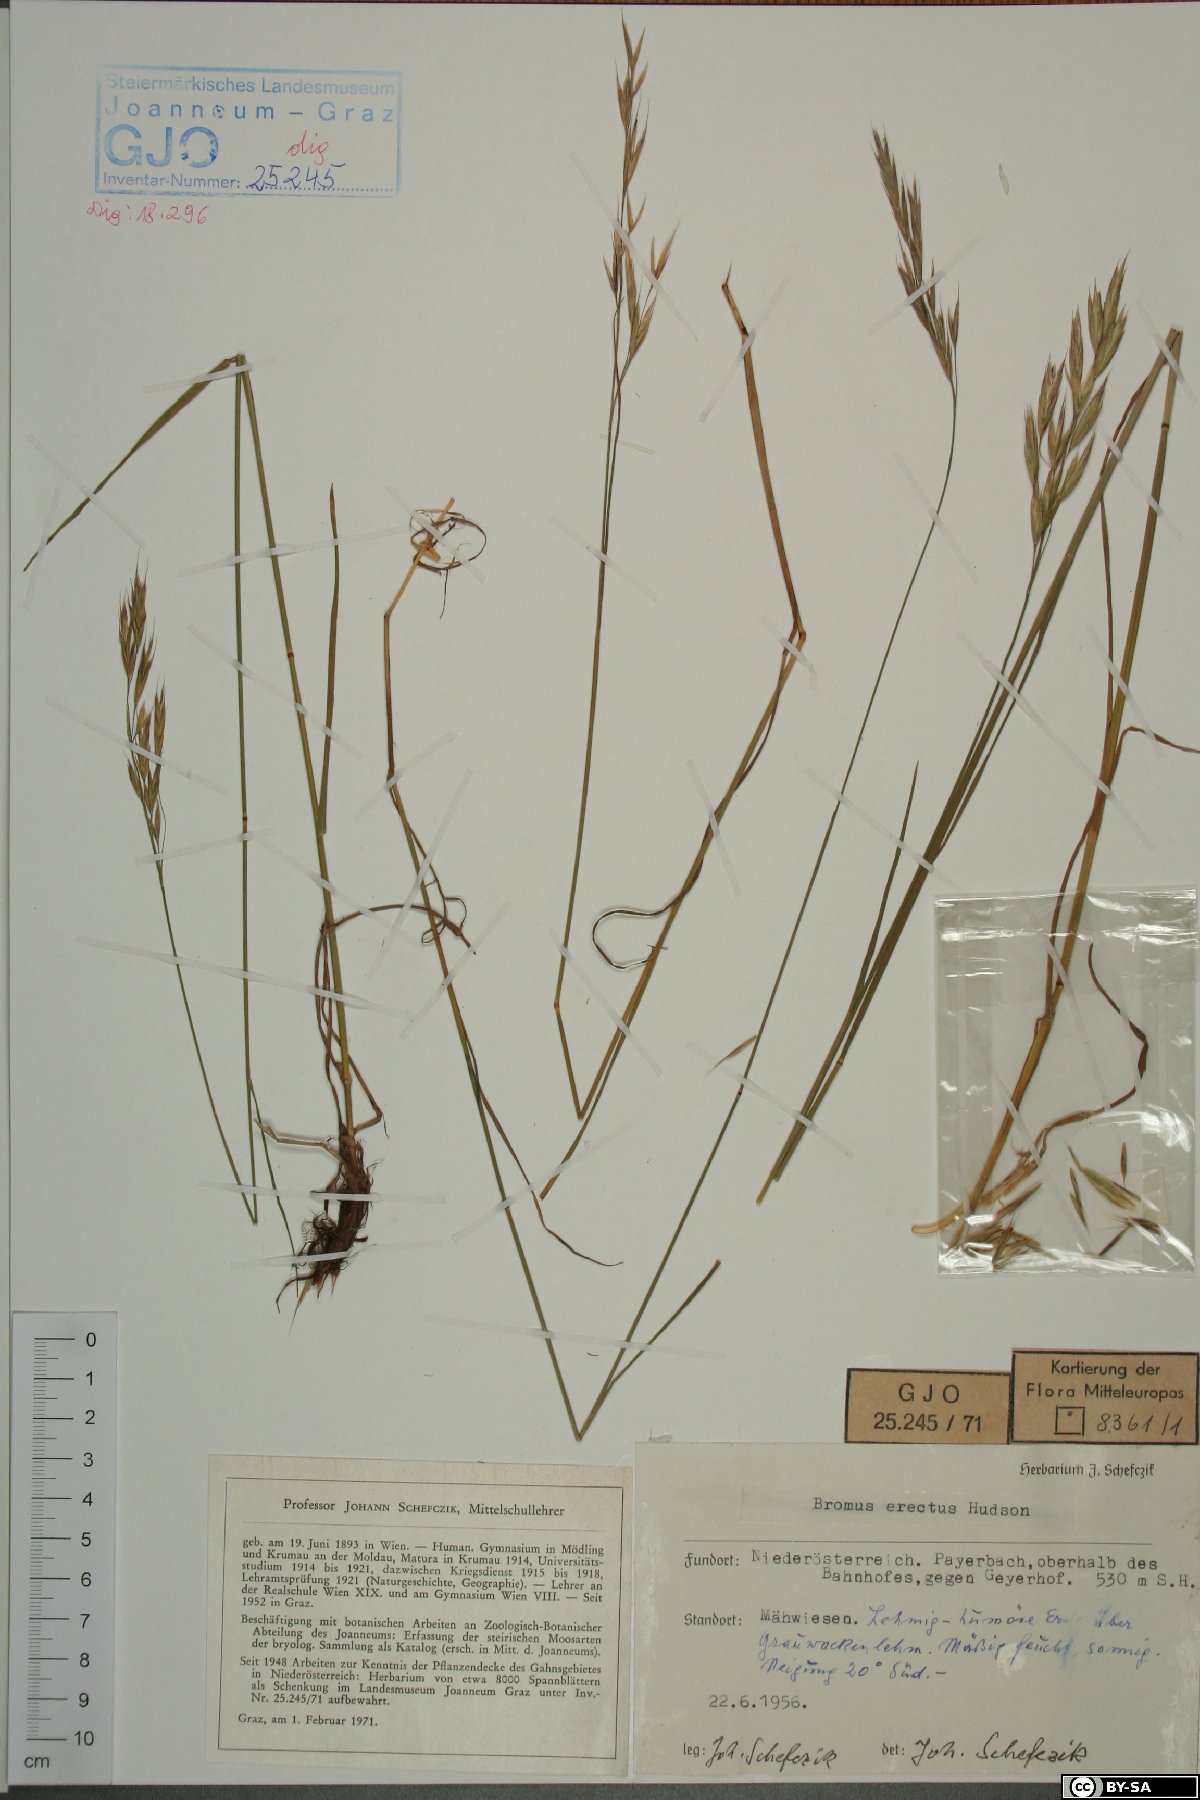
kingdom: Plantae
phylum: Tracheophyta
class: Liliopsida
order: Poales
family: Poaceae
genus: Bromus
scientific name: Bromus erectus
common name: Erect brome
